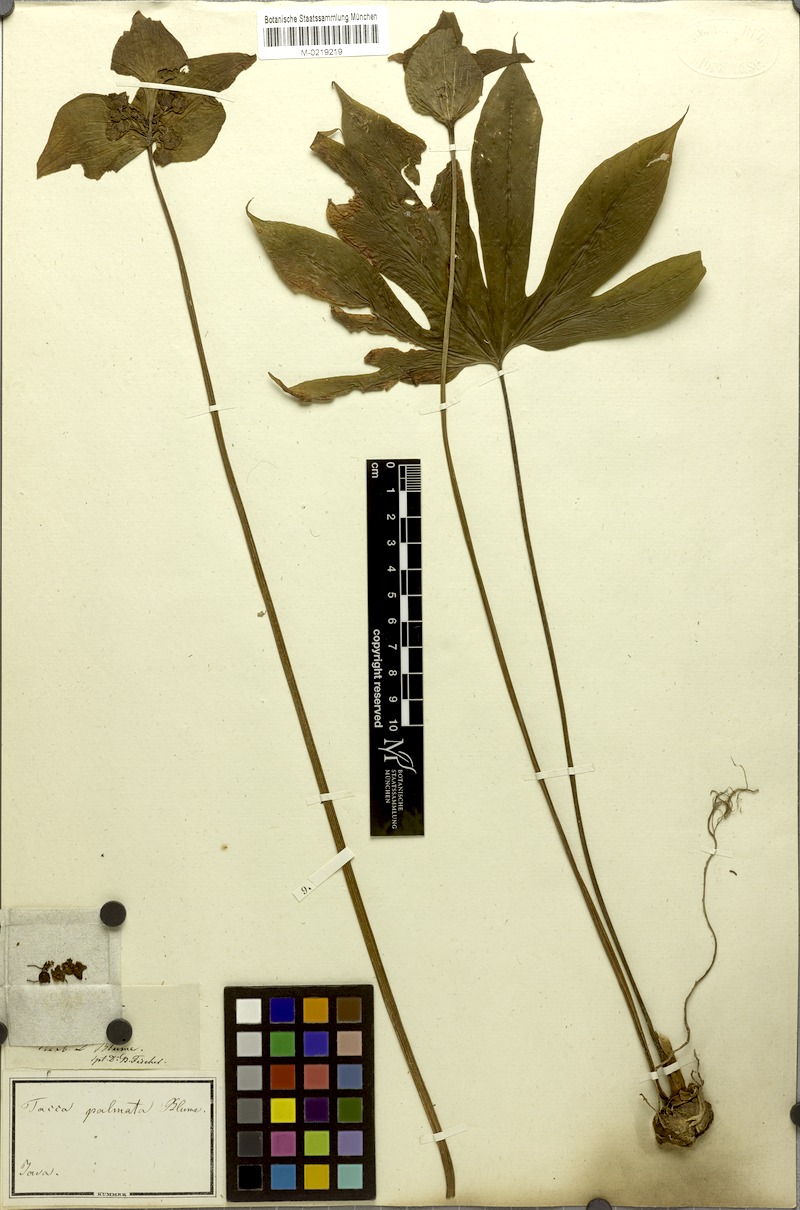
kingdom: Plantae
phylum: Tracheophyta
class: Liliopsida
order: Dioscoreales
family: Dioscoreaceae
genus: Tacca
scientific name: Tacca palmata
